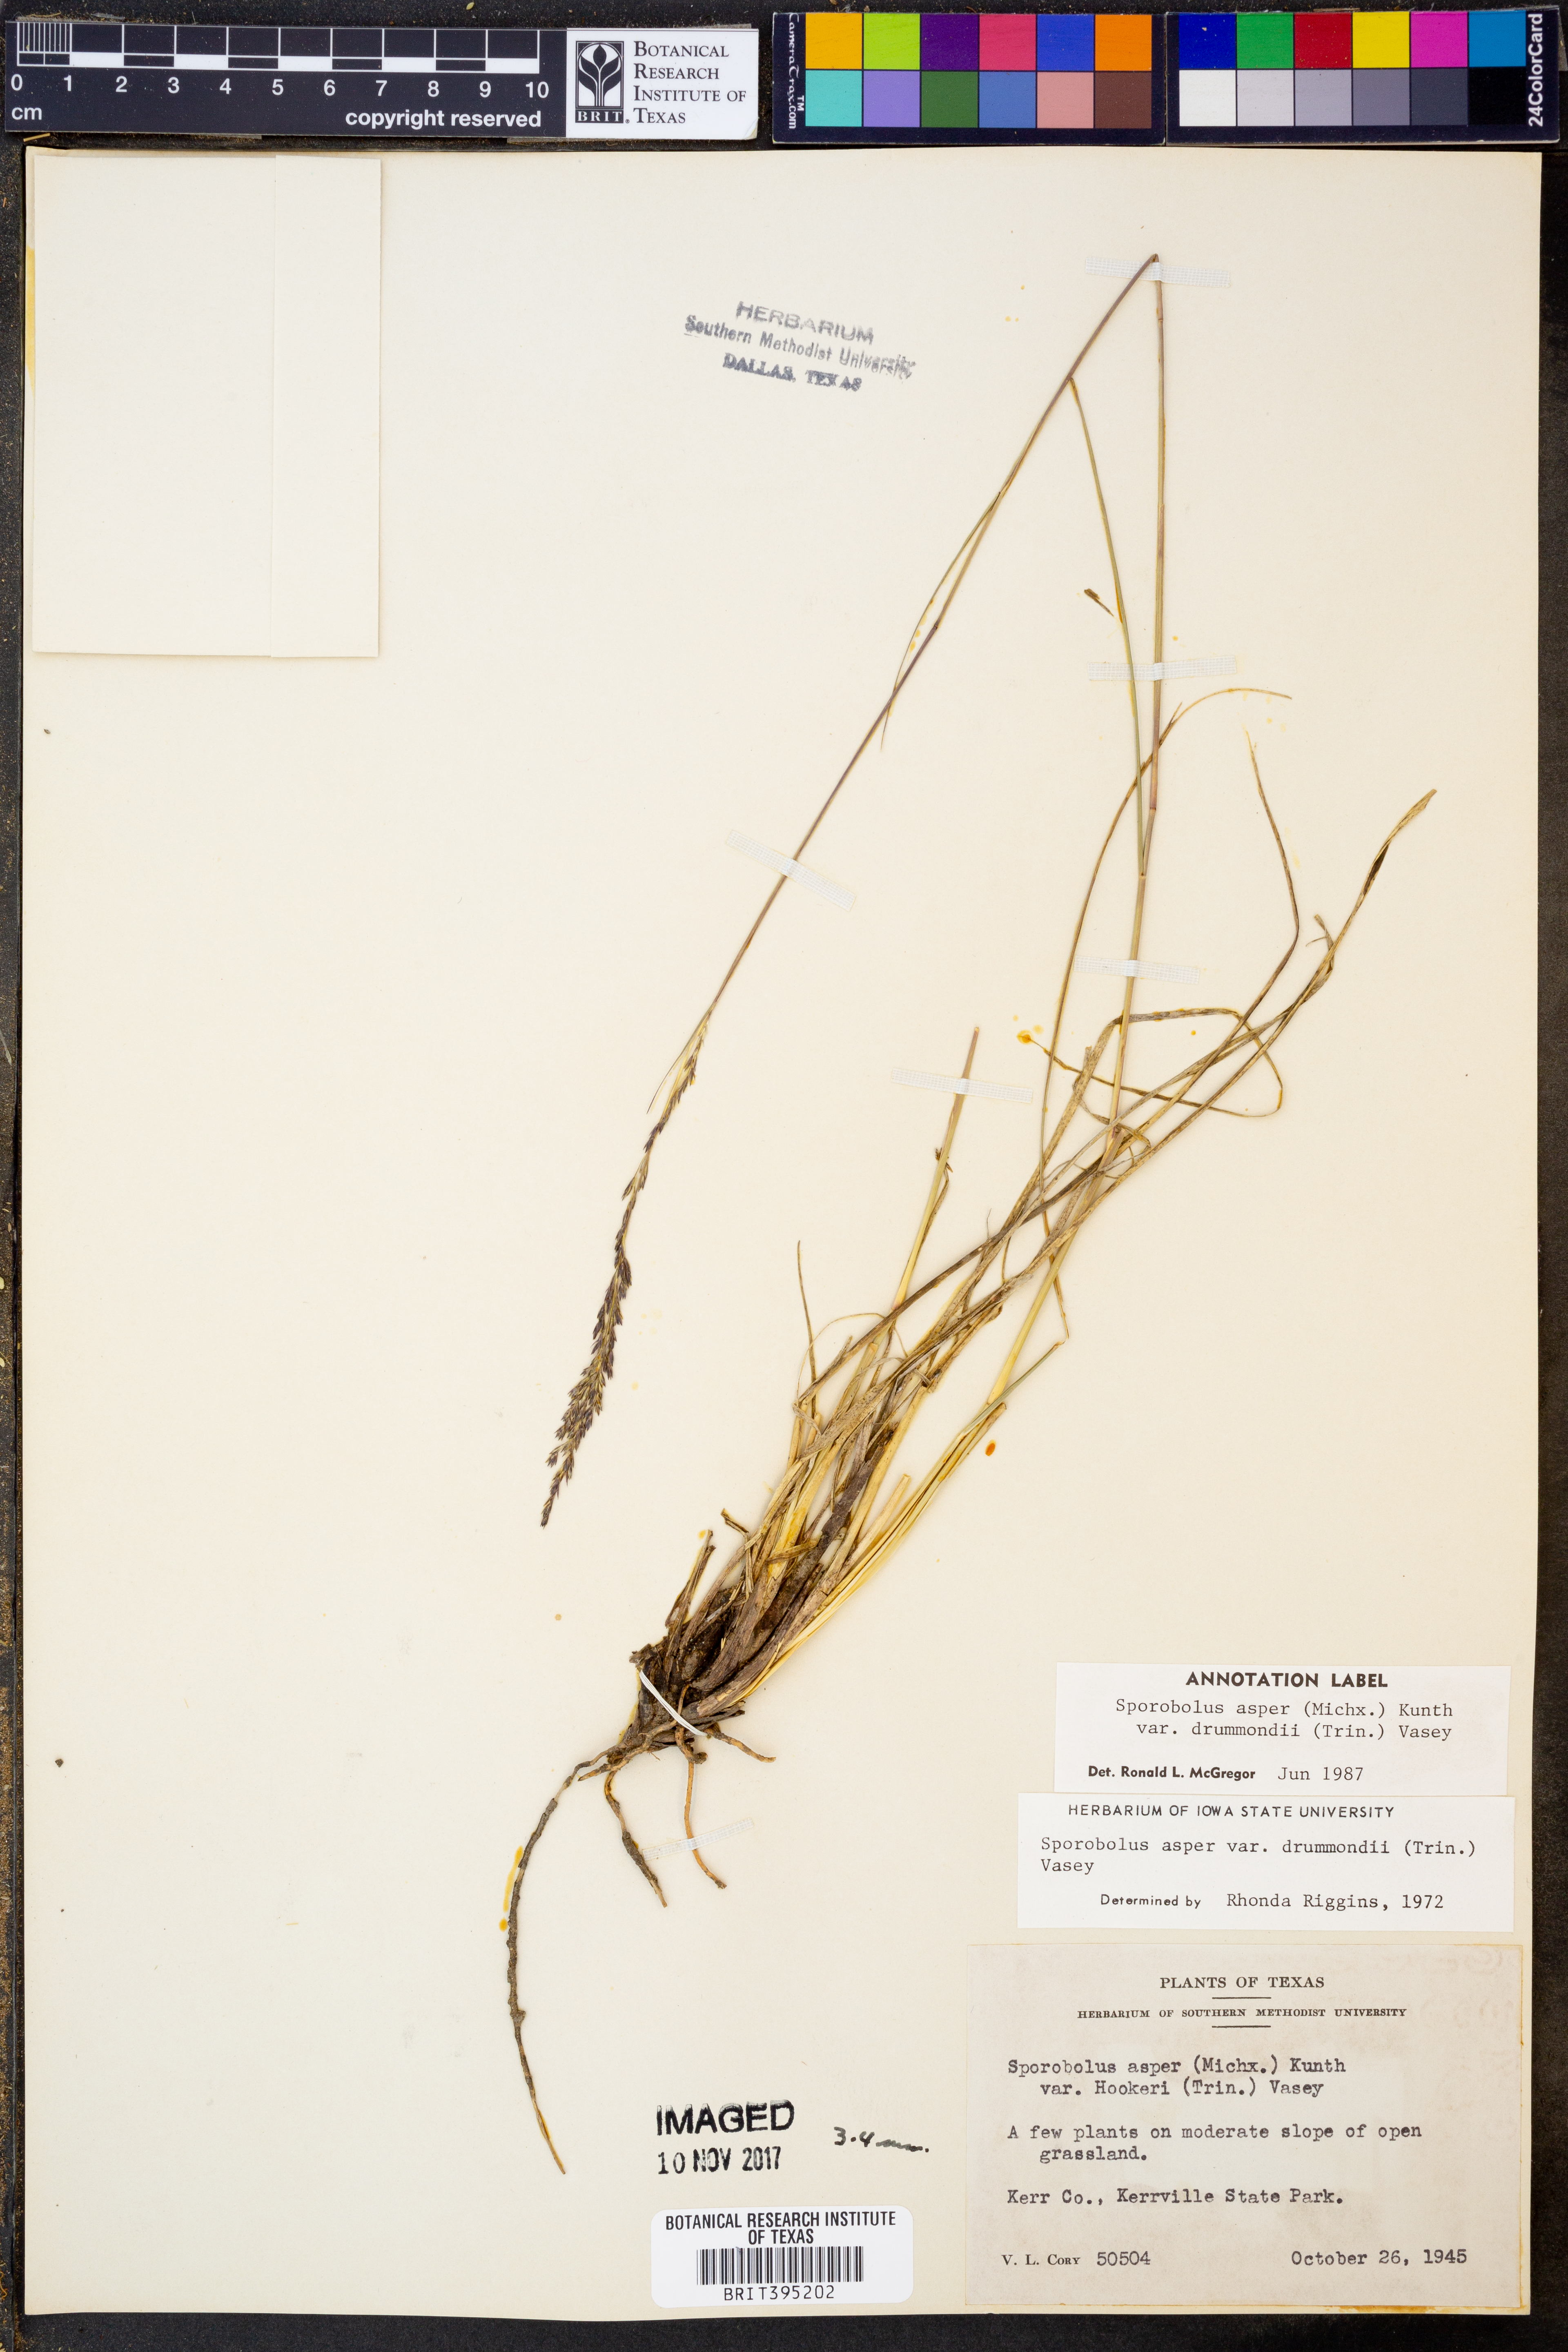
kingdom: Plantae
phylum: Tracheophyta
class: Liliopsida
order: Poales
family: Poaceae
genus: Sporobolus
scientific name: Sporobolus compositus
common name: Rough dropseed
